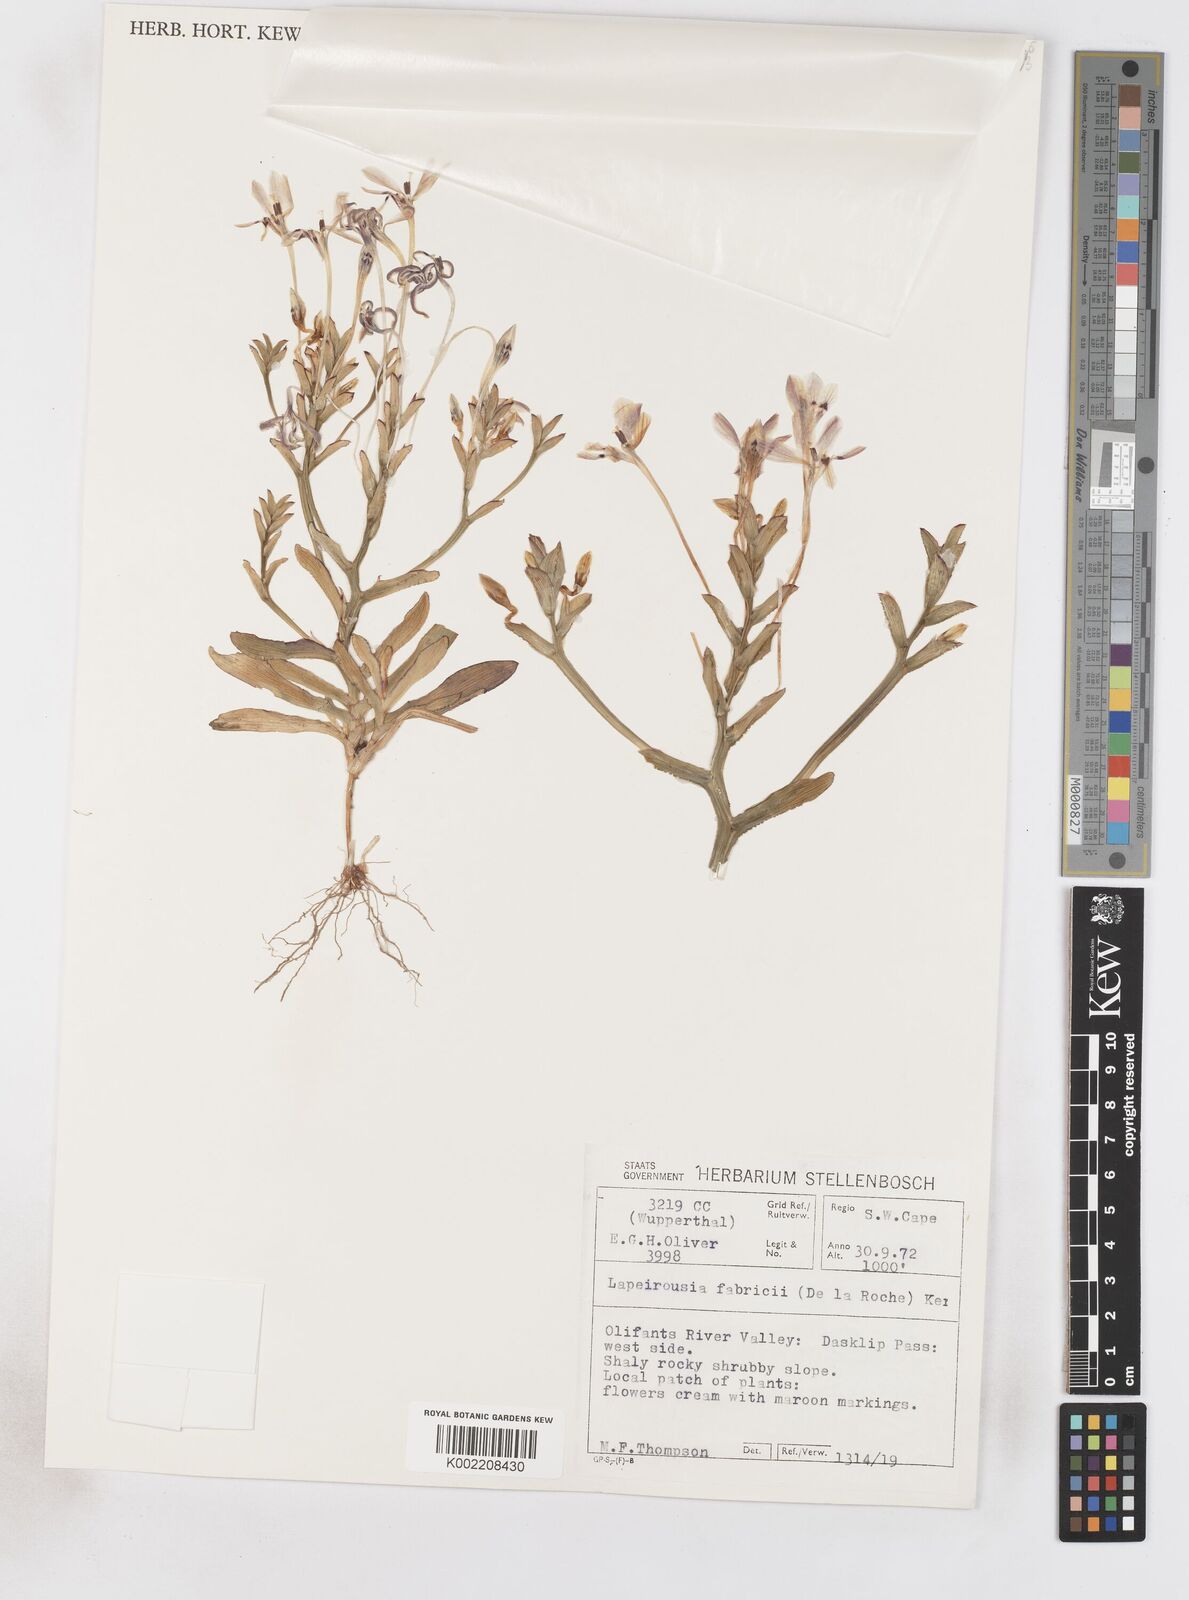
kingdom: Plantae
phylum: Tracheophyta
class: Liliopsida
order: Asparagales
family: Iridaceae
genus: Lapeirousia
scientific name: Lapeirousia fabricii
